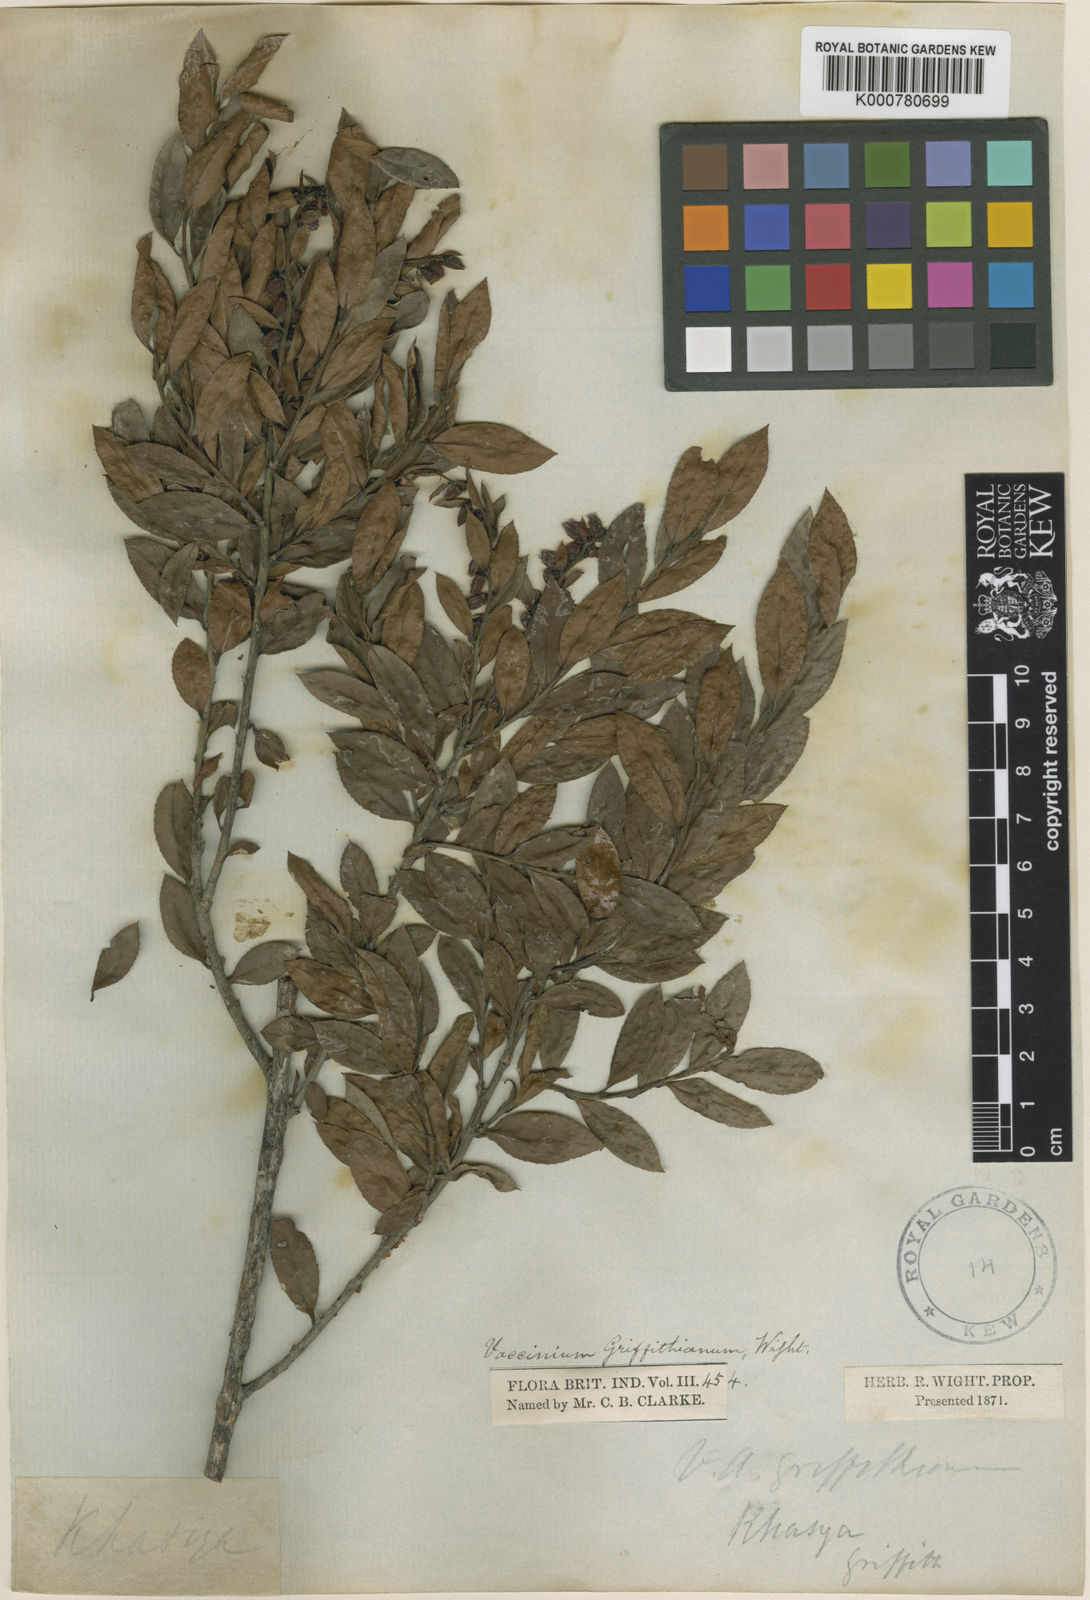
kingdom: Plantae
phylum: Tracheophyta
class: Magnoliopsida
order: Ericales
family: Ericaceae
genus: Vaccinium
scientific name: Vaccinium griffithianum
